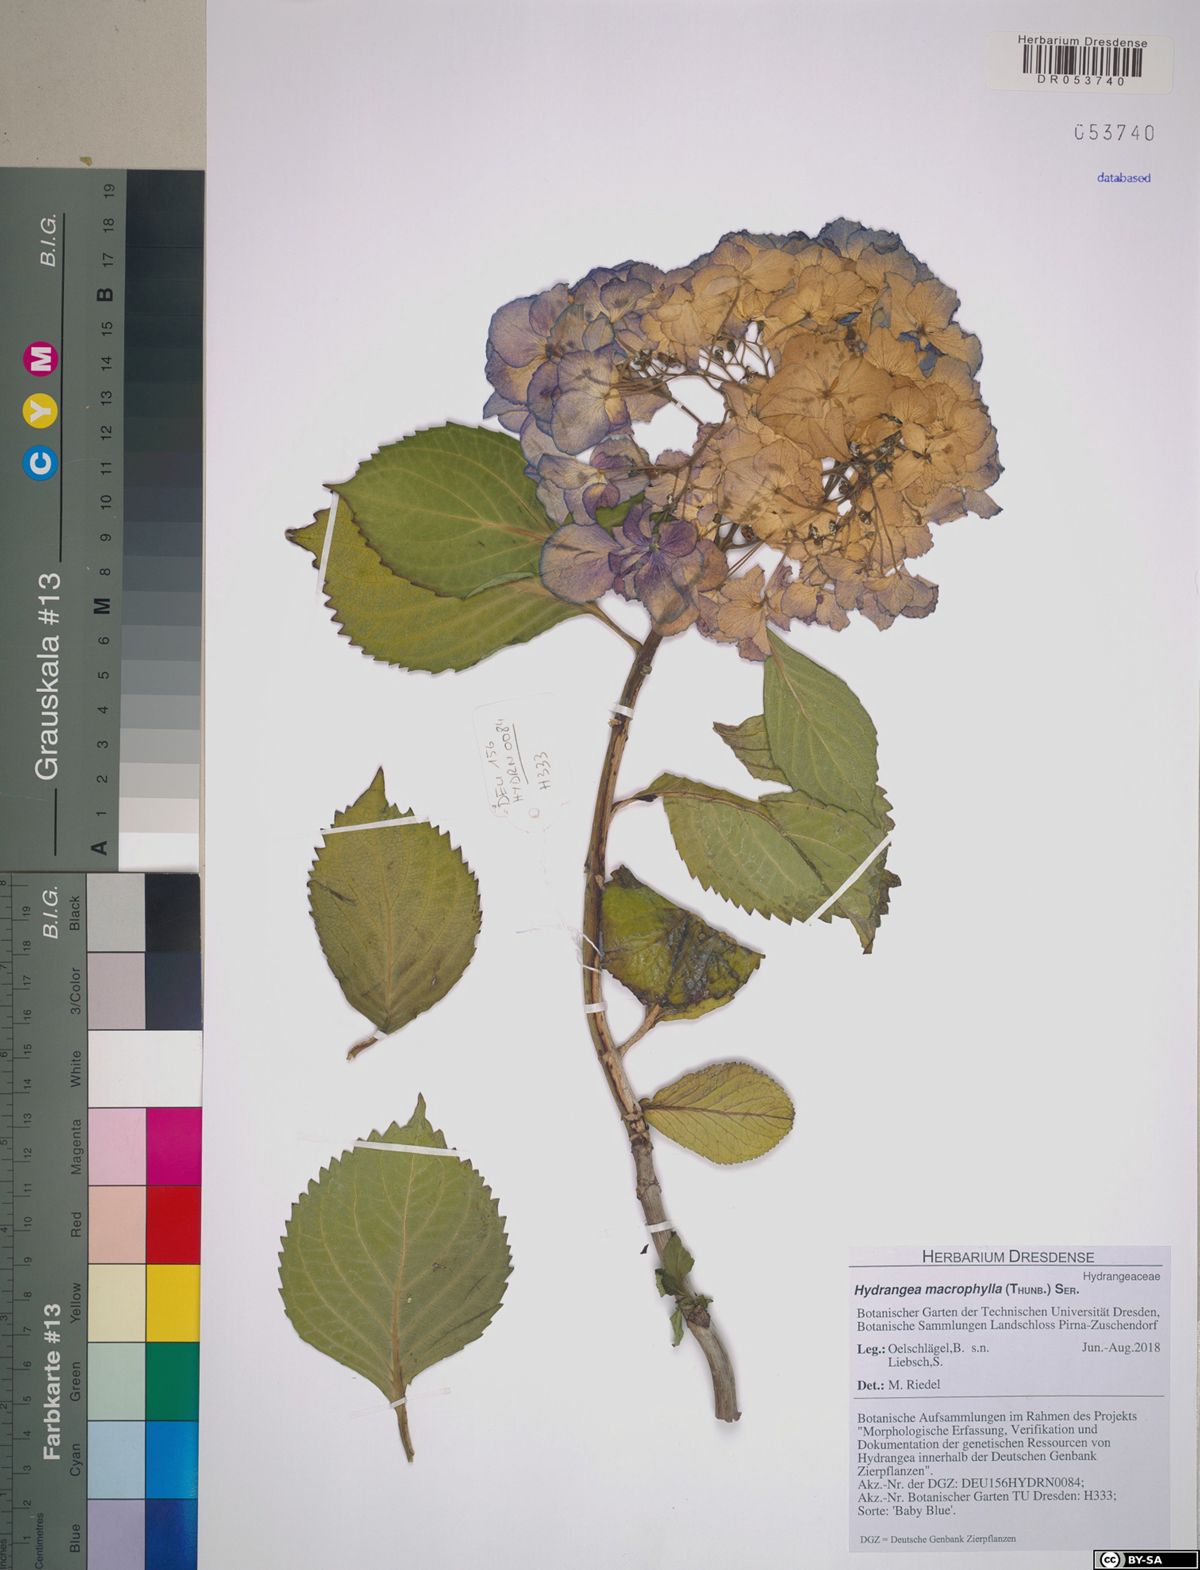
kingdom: Plantae
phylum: Tracheophyta
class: Magnoliopsida
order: Cornales
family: Hydrangeaceae
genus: Hydrangea
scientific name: Hydrangea macrophylla
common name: Hydrangea
